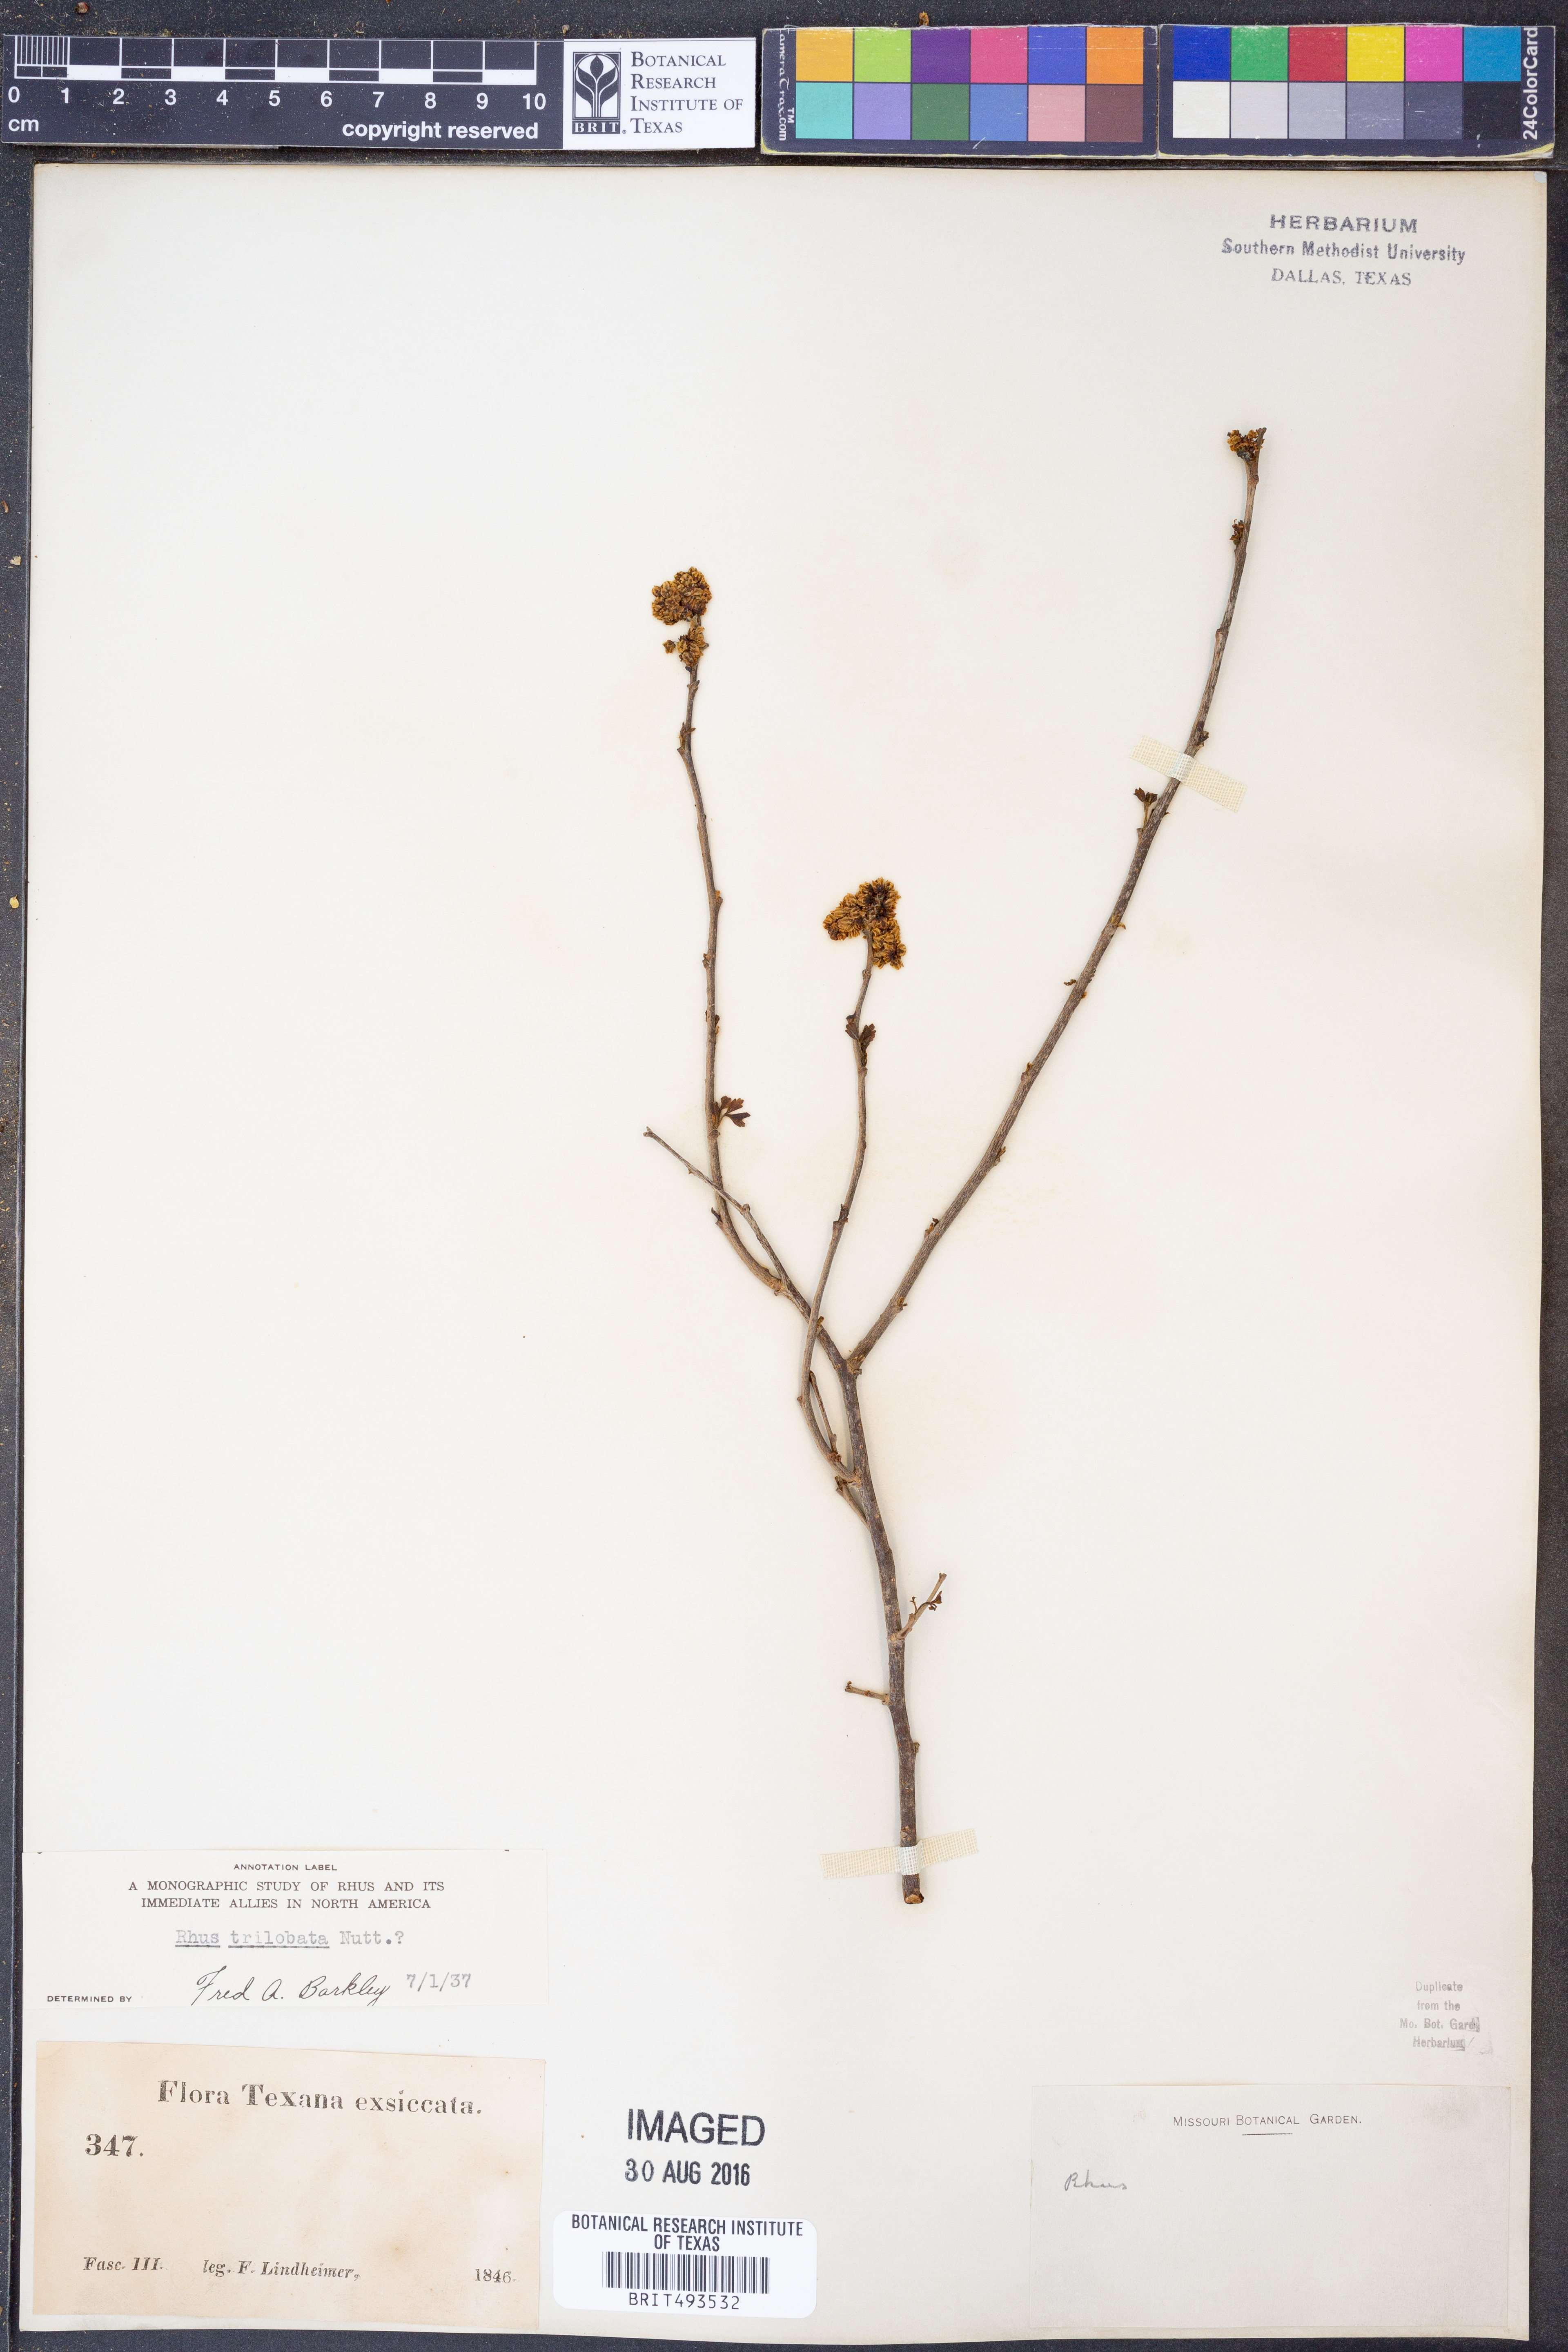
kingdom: Plantae
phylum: Tracheophyta
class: Magnoliopsida
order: Sapindales
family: Anacardiaceae
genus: Rhus
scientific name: Rhus trilobata
